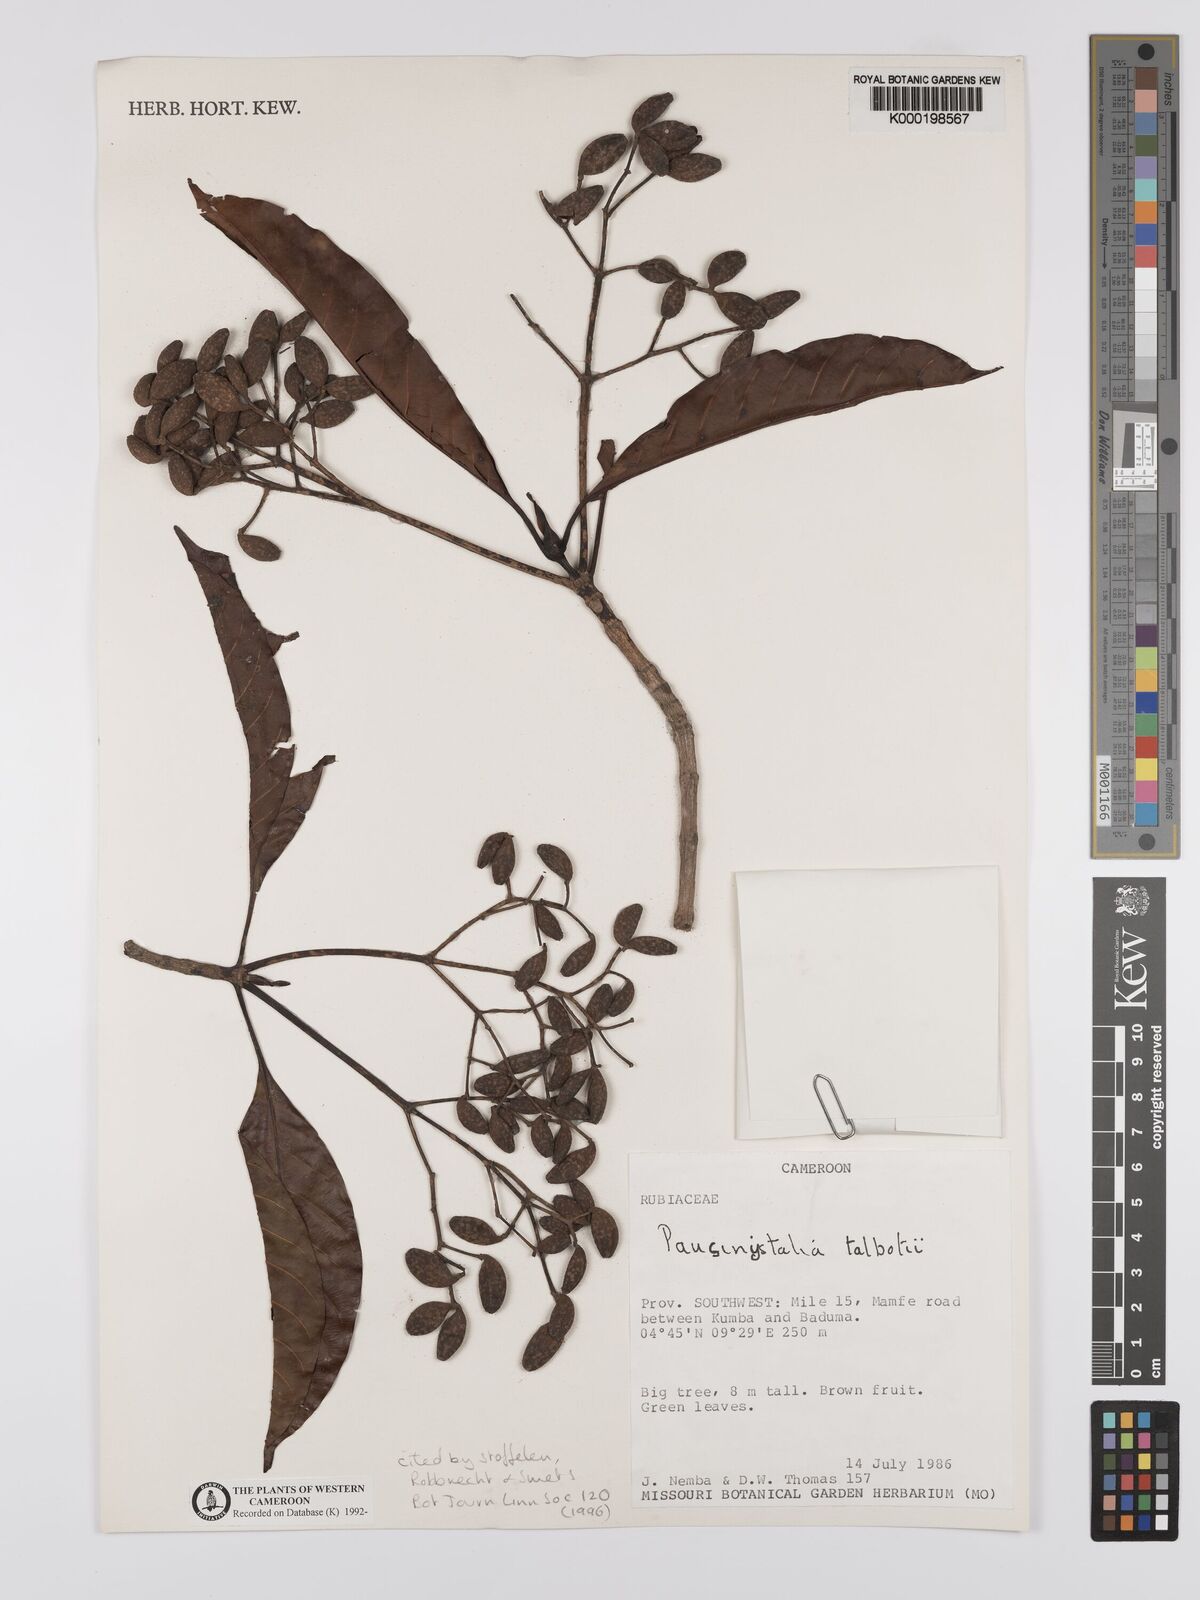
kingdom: Plantae
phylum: Tracheophyta
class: Magnoliopsida
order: Gentianales
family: Rubiaceae
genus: Corynanthe
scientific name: Corynanthe talbotii
